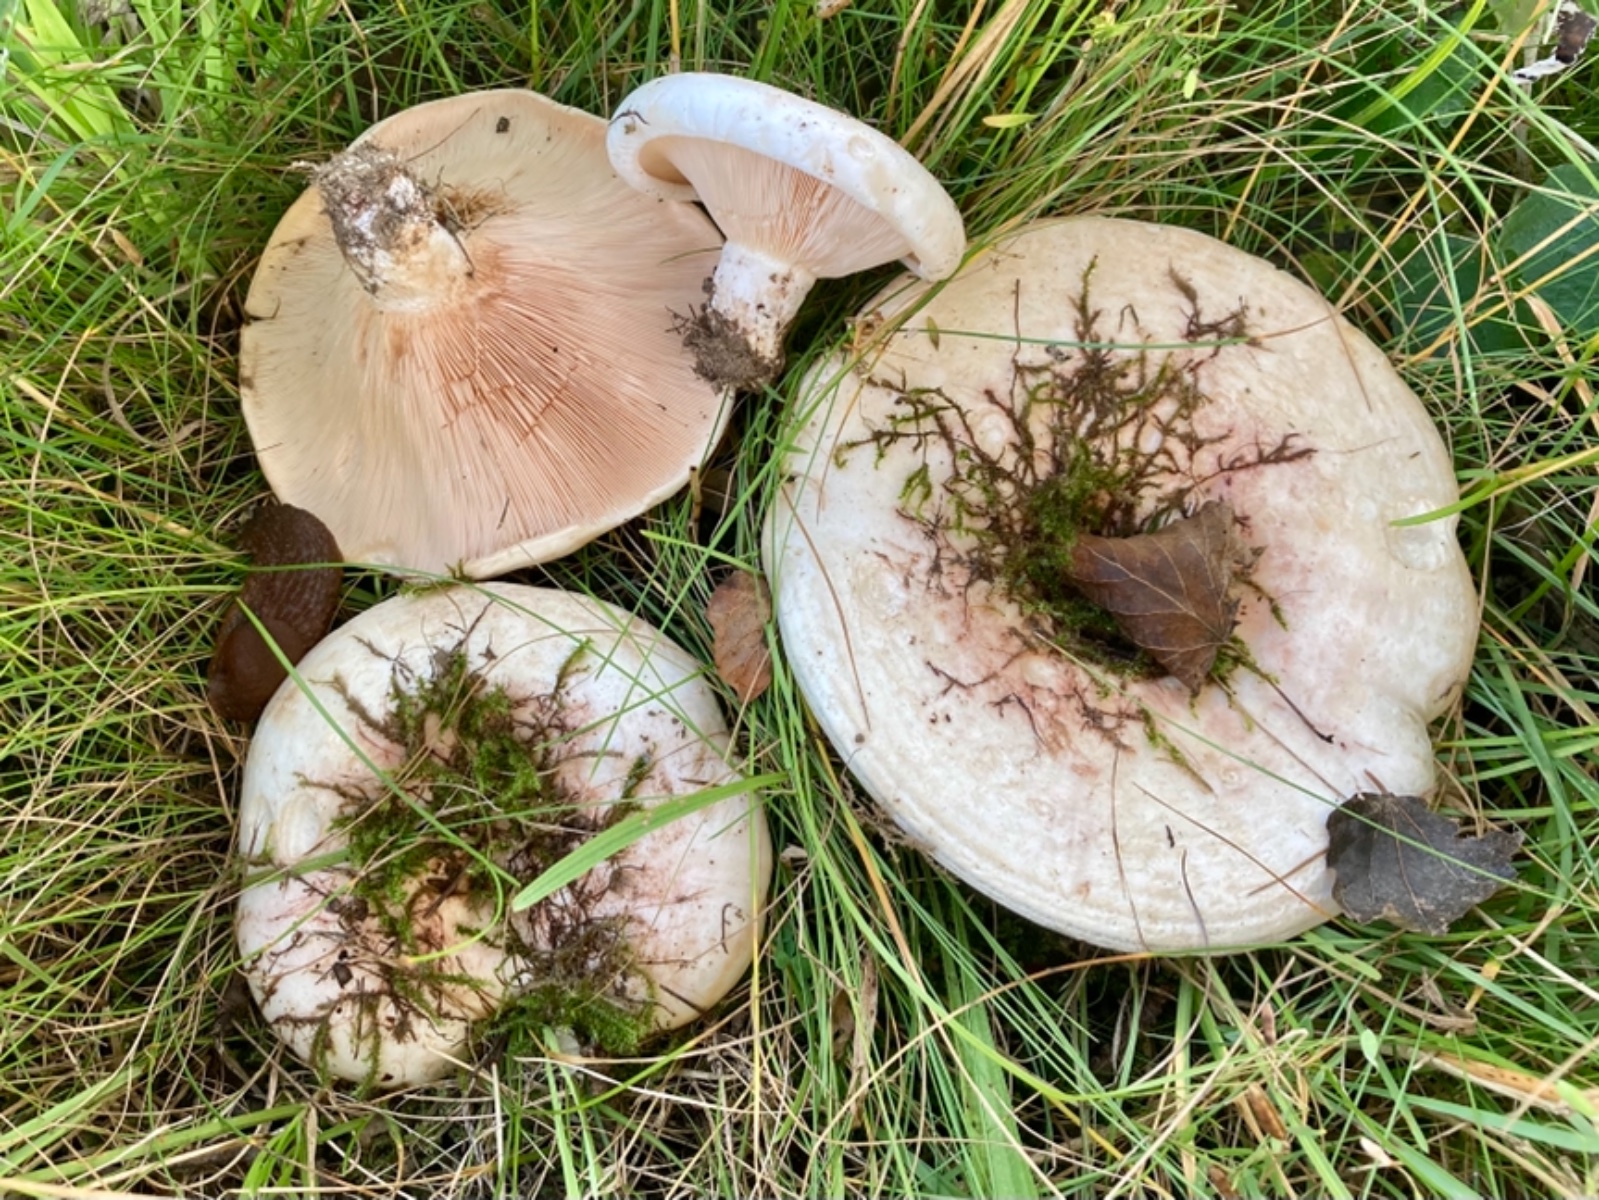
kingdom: Fungi
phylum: Basidiomycota
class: Agaricomycetes
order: Russulales
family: Russulaceae
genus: Lactarius
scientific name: Lactarius controversus
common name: rosabladet mælkehat
